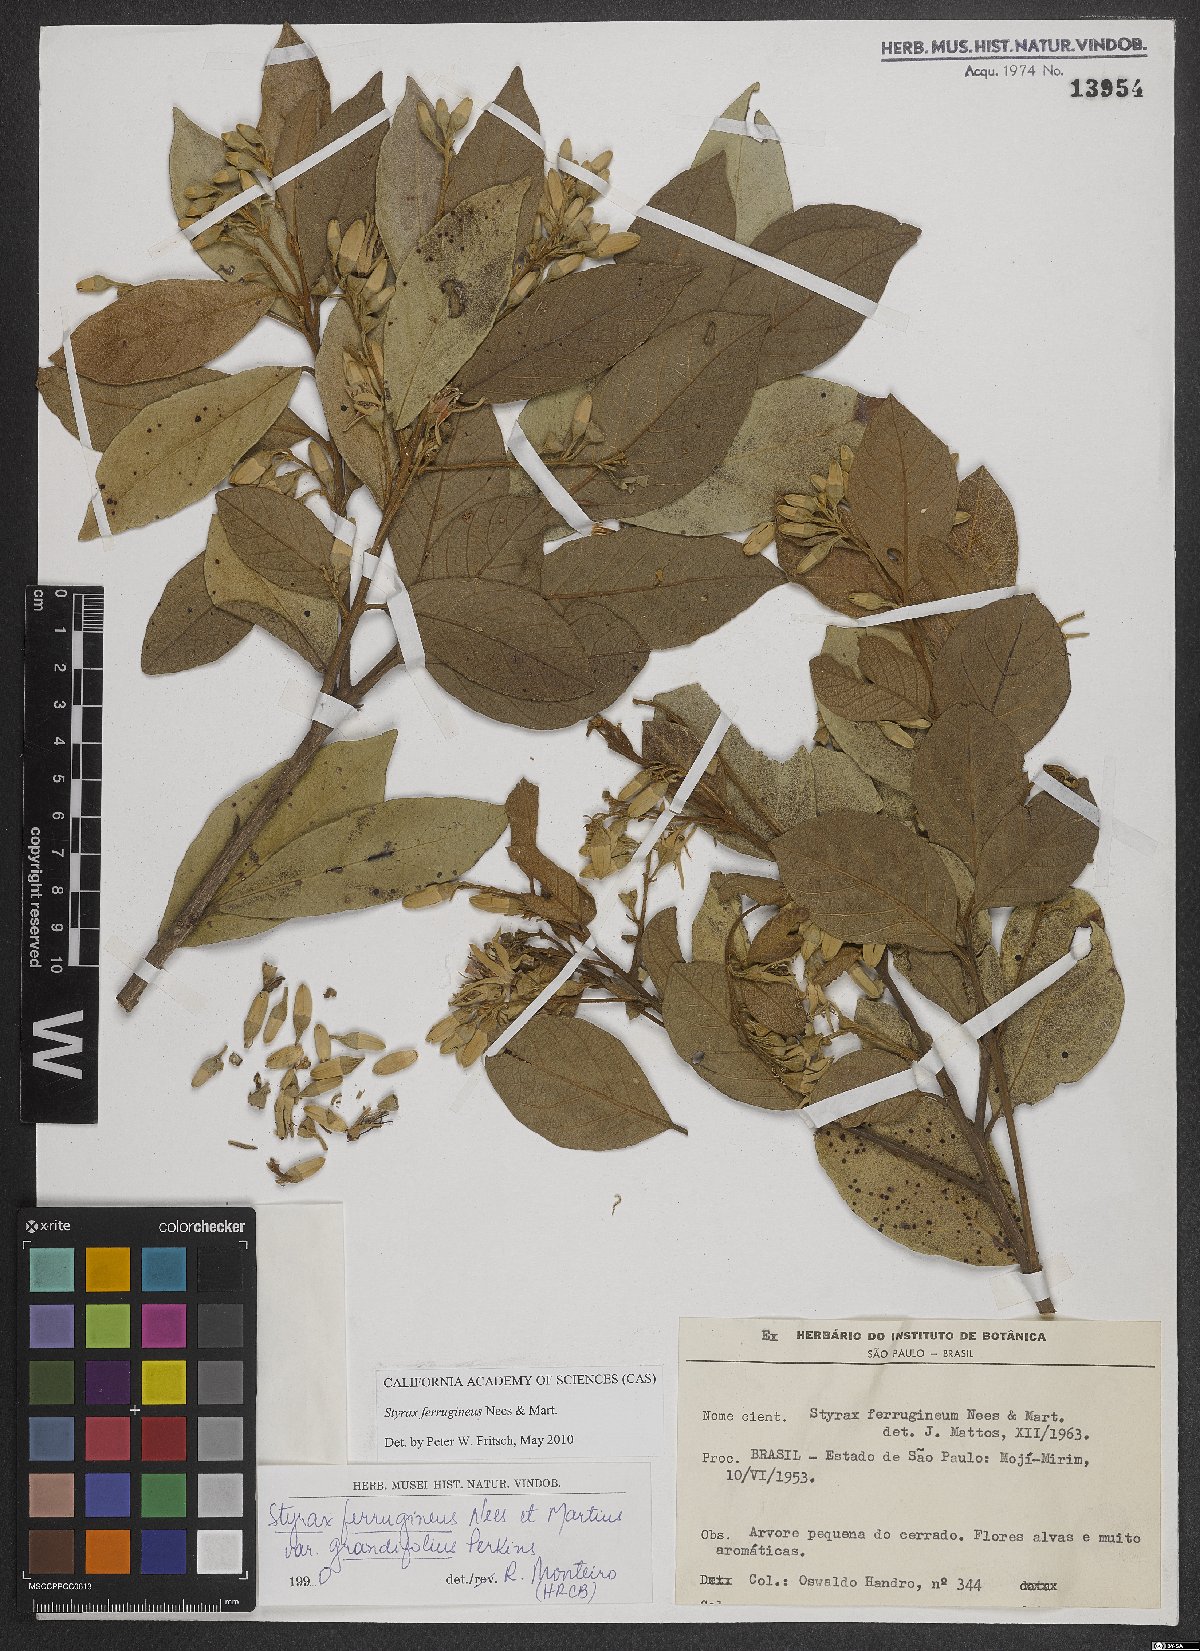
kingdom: Plantae
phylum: Tracheophyta
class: Magnoliopsida
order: Ericales
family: Styracaceae
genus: Styrax
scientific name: Styrax ferrugineus
